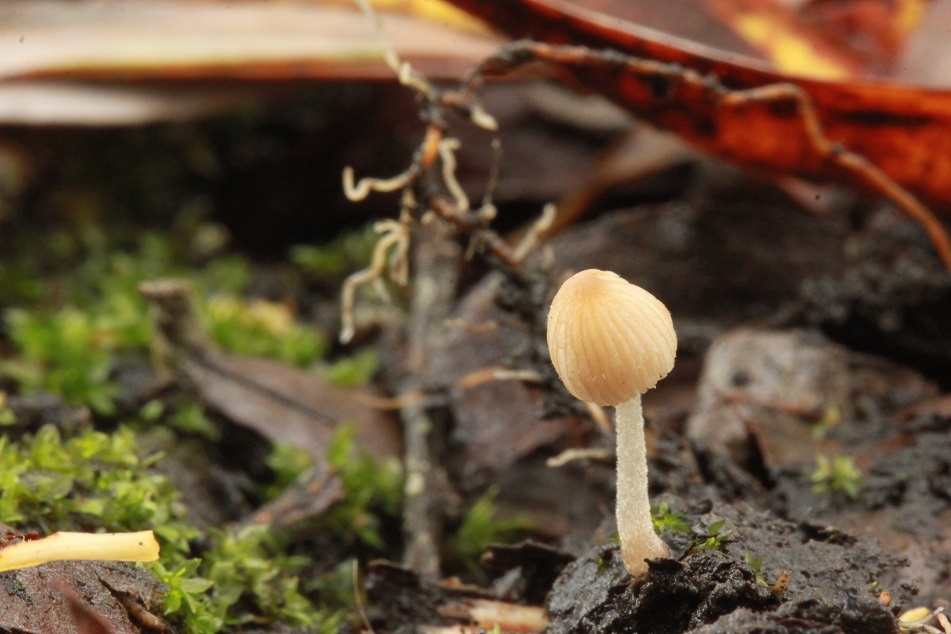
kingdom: Fungi
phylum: Basidiomycota
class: Agaricomycetes
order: Agaricales
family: Psathyrellaceae
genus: Tulosesus
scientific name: Tulosesus heterothrix
